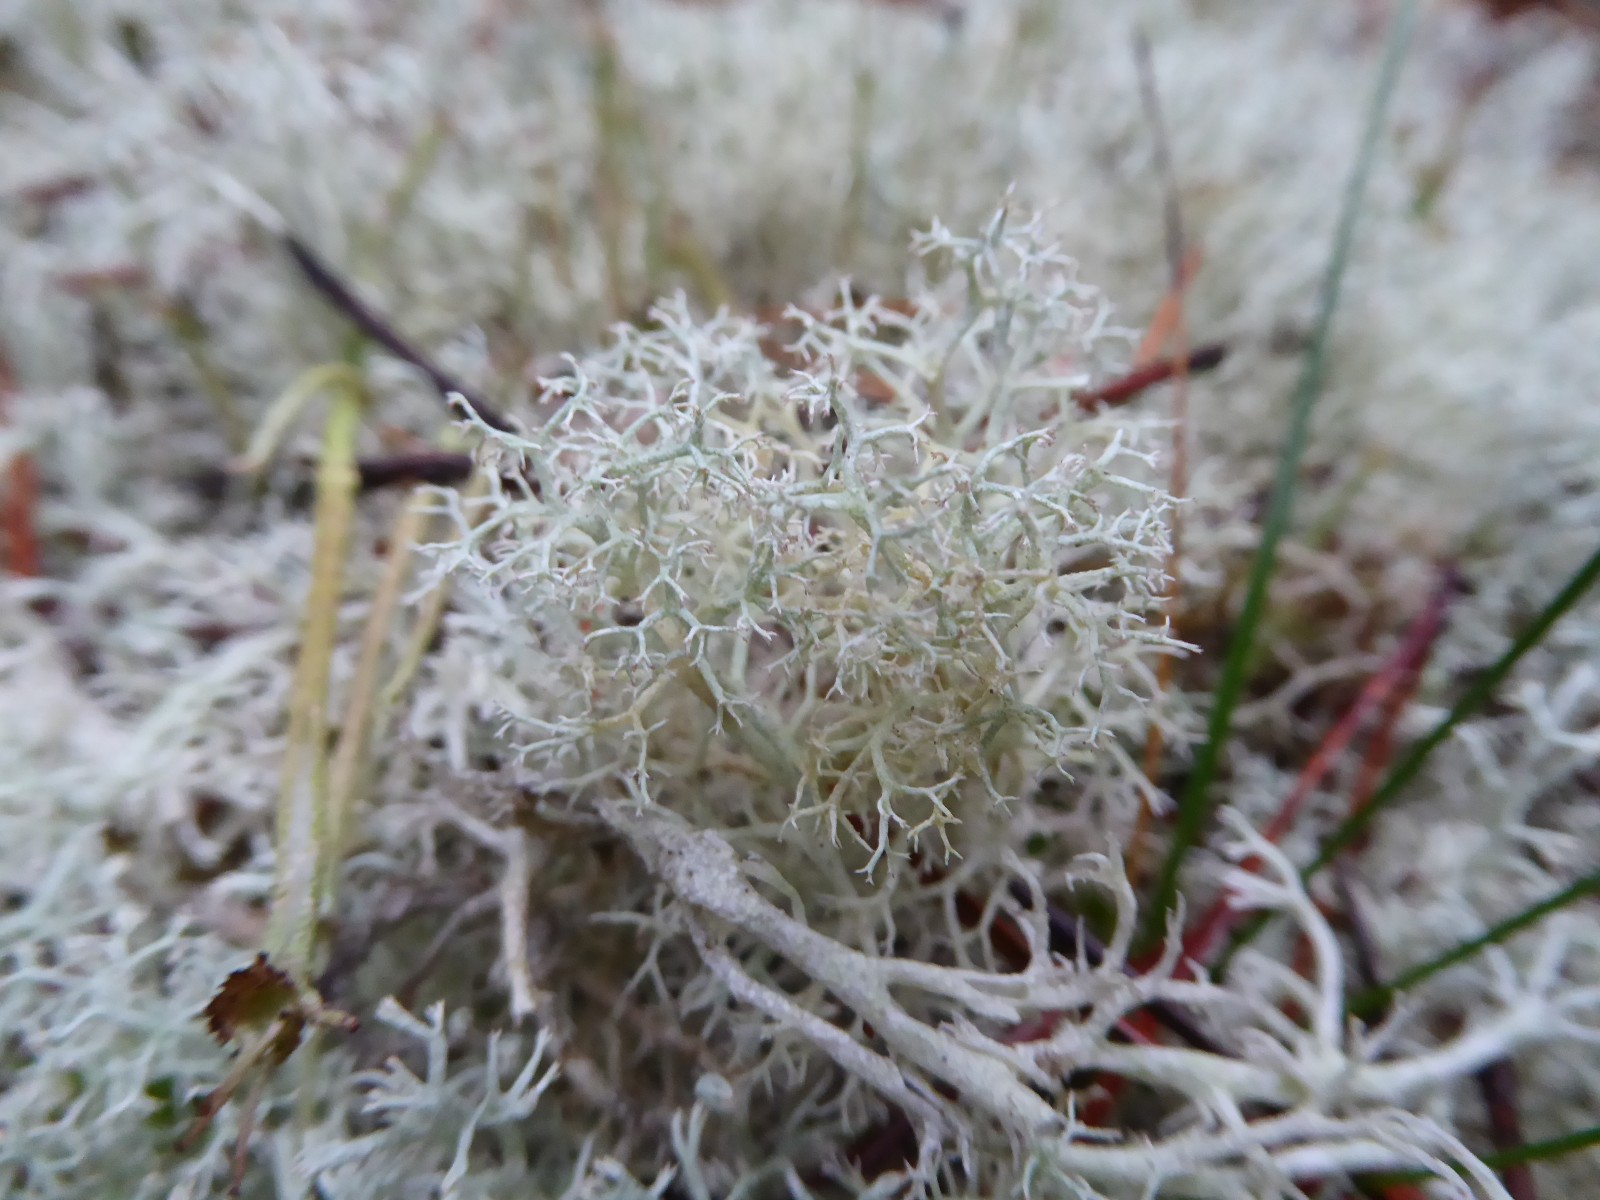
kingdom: Fungi
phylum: Ascomycota
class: Lecanoromycetes
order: Lecanorales
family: Cladoniaceae
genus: Cladonia
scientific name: Cladonia portentosa
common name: hede-rensdyrlav
